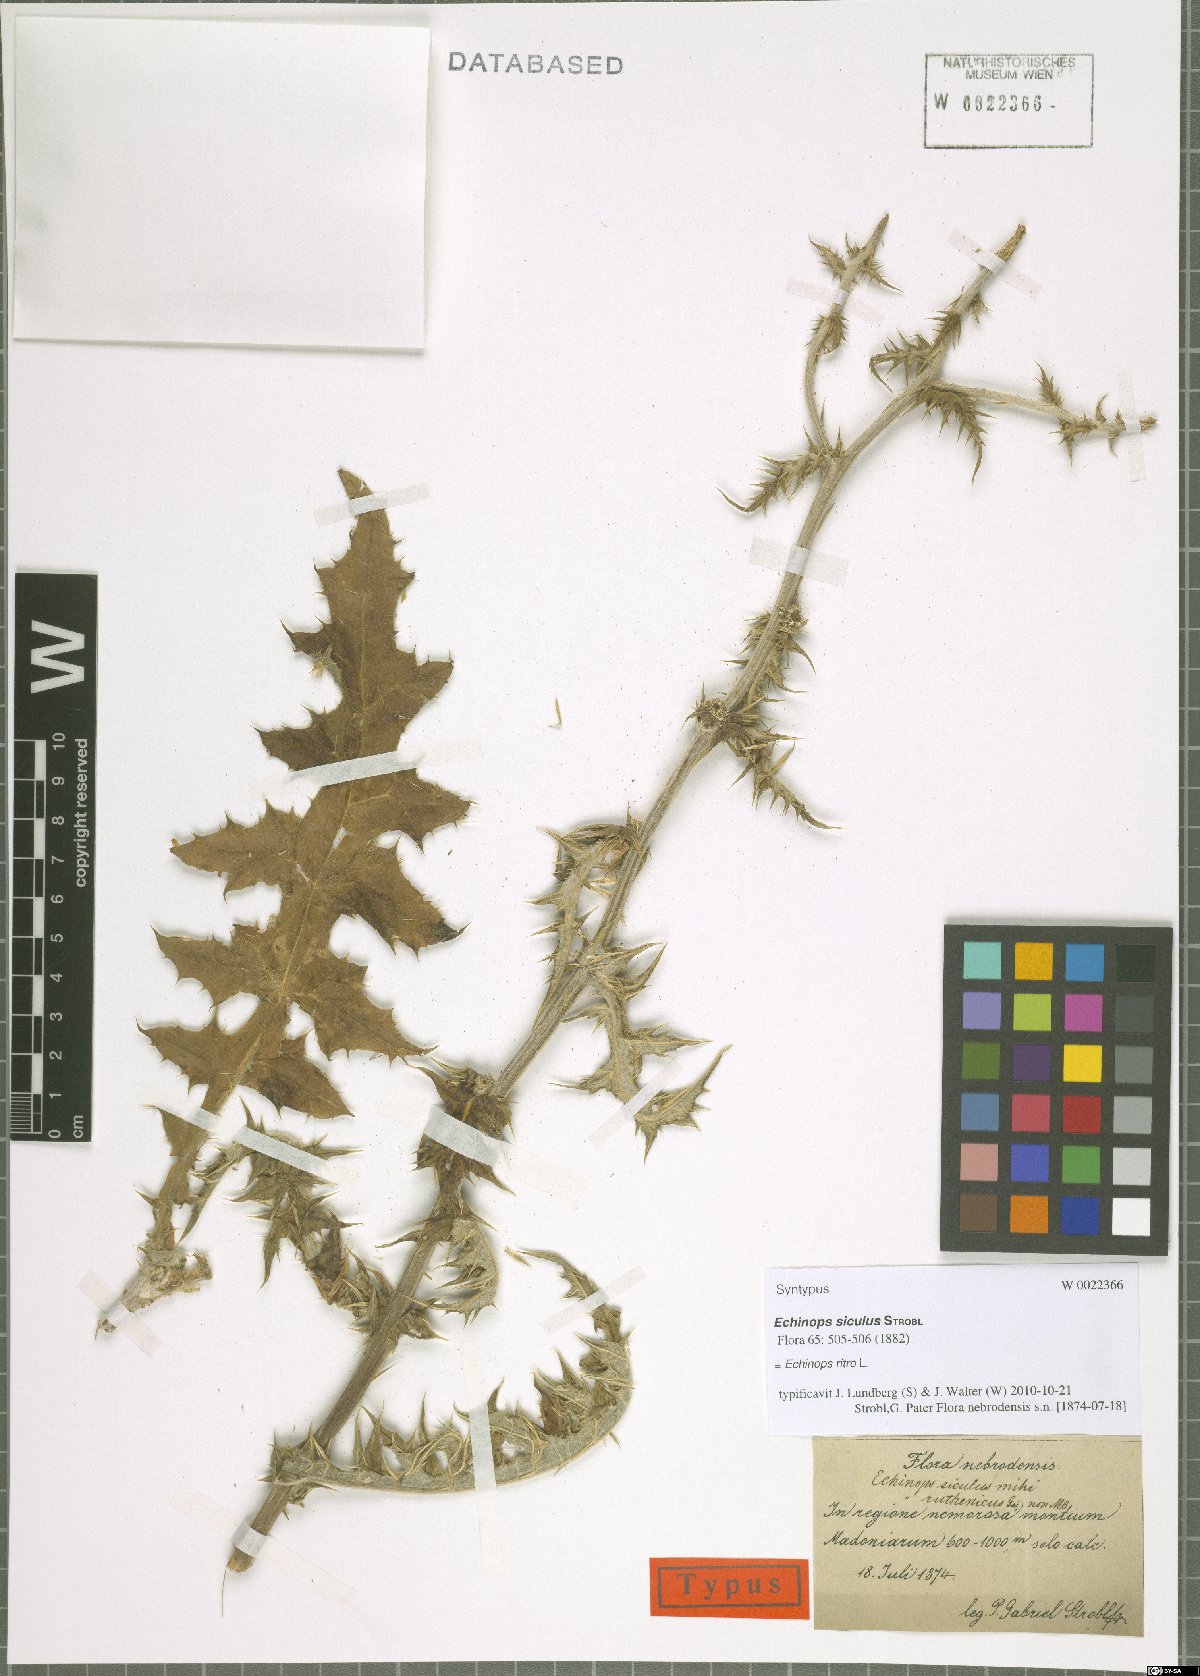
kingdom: Plantae
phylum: Tracheophyta
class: Magnoliopsida
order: Asterales
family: Asteraceae
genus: Echinops
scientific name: Echinops ritro
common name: Globe thistle
